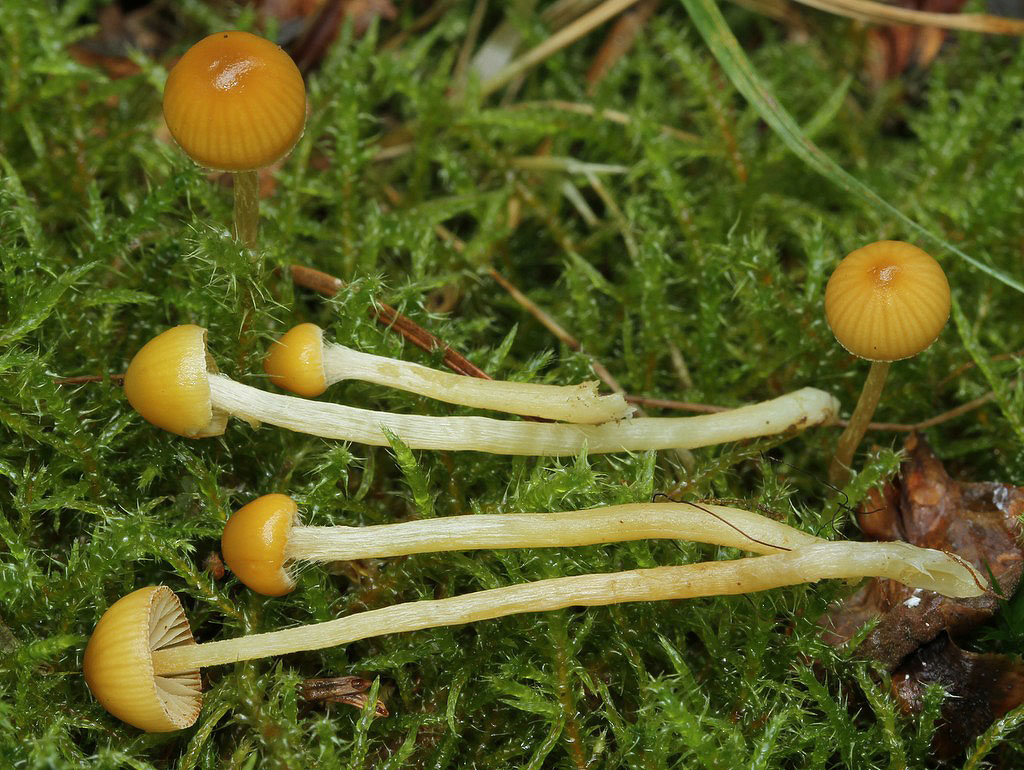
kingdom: Fungi
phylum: Basidiomycota
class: Agaricomycetes
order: Agaricales
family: Hymenogastraceae
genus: Galerina
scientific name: Galerina pumila
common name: honninggul hjelmhat
